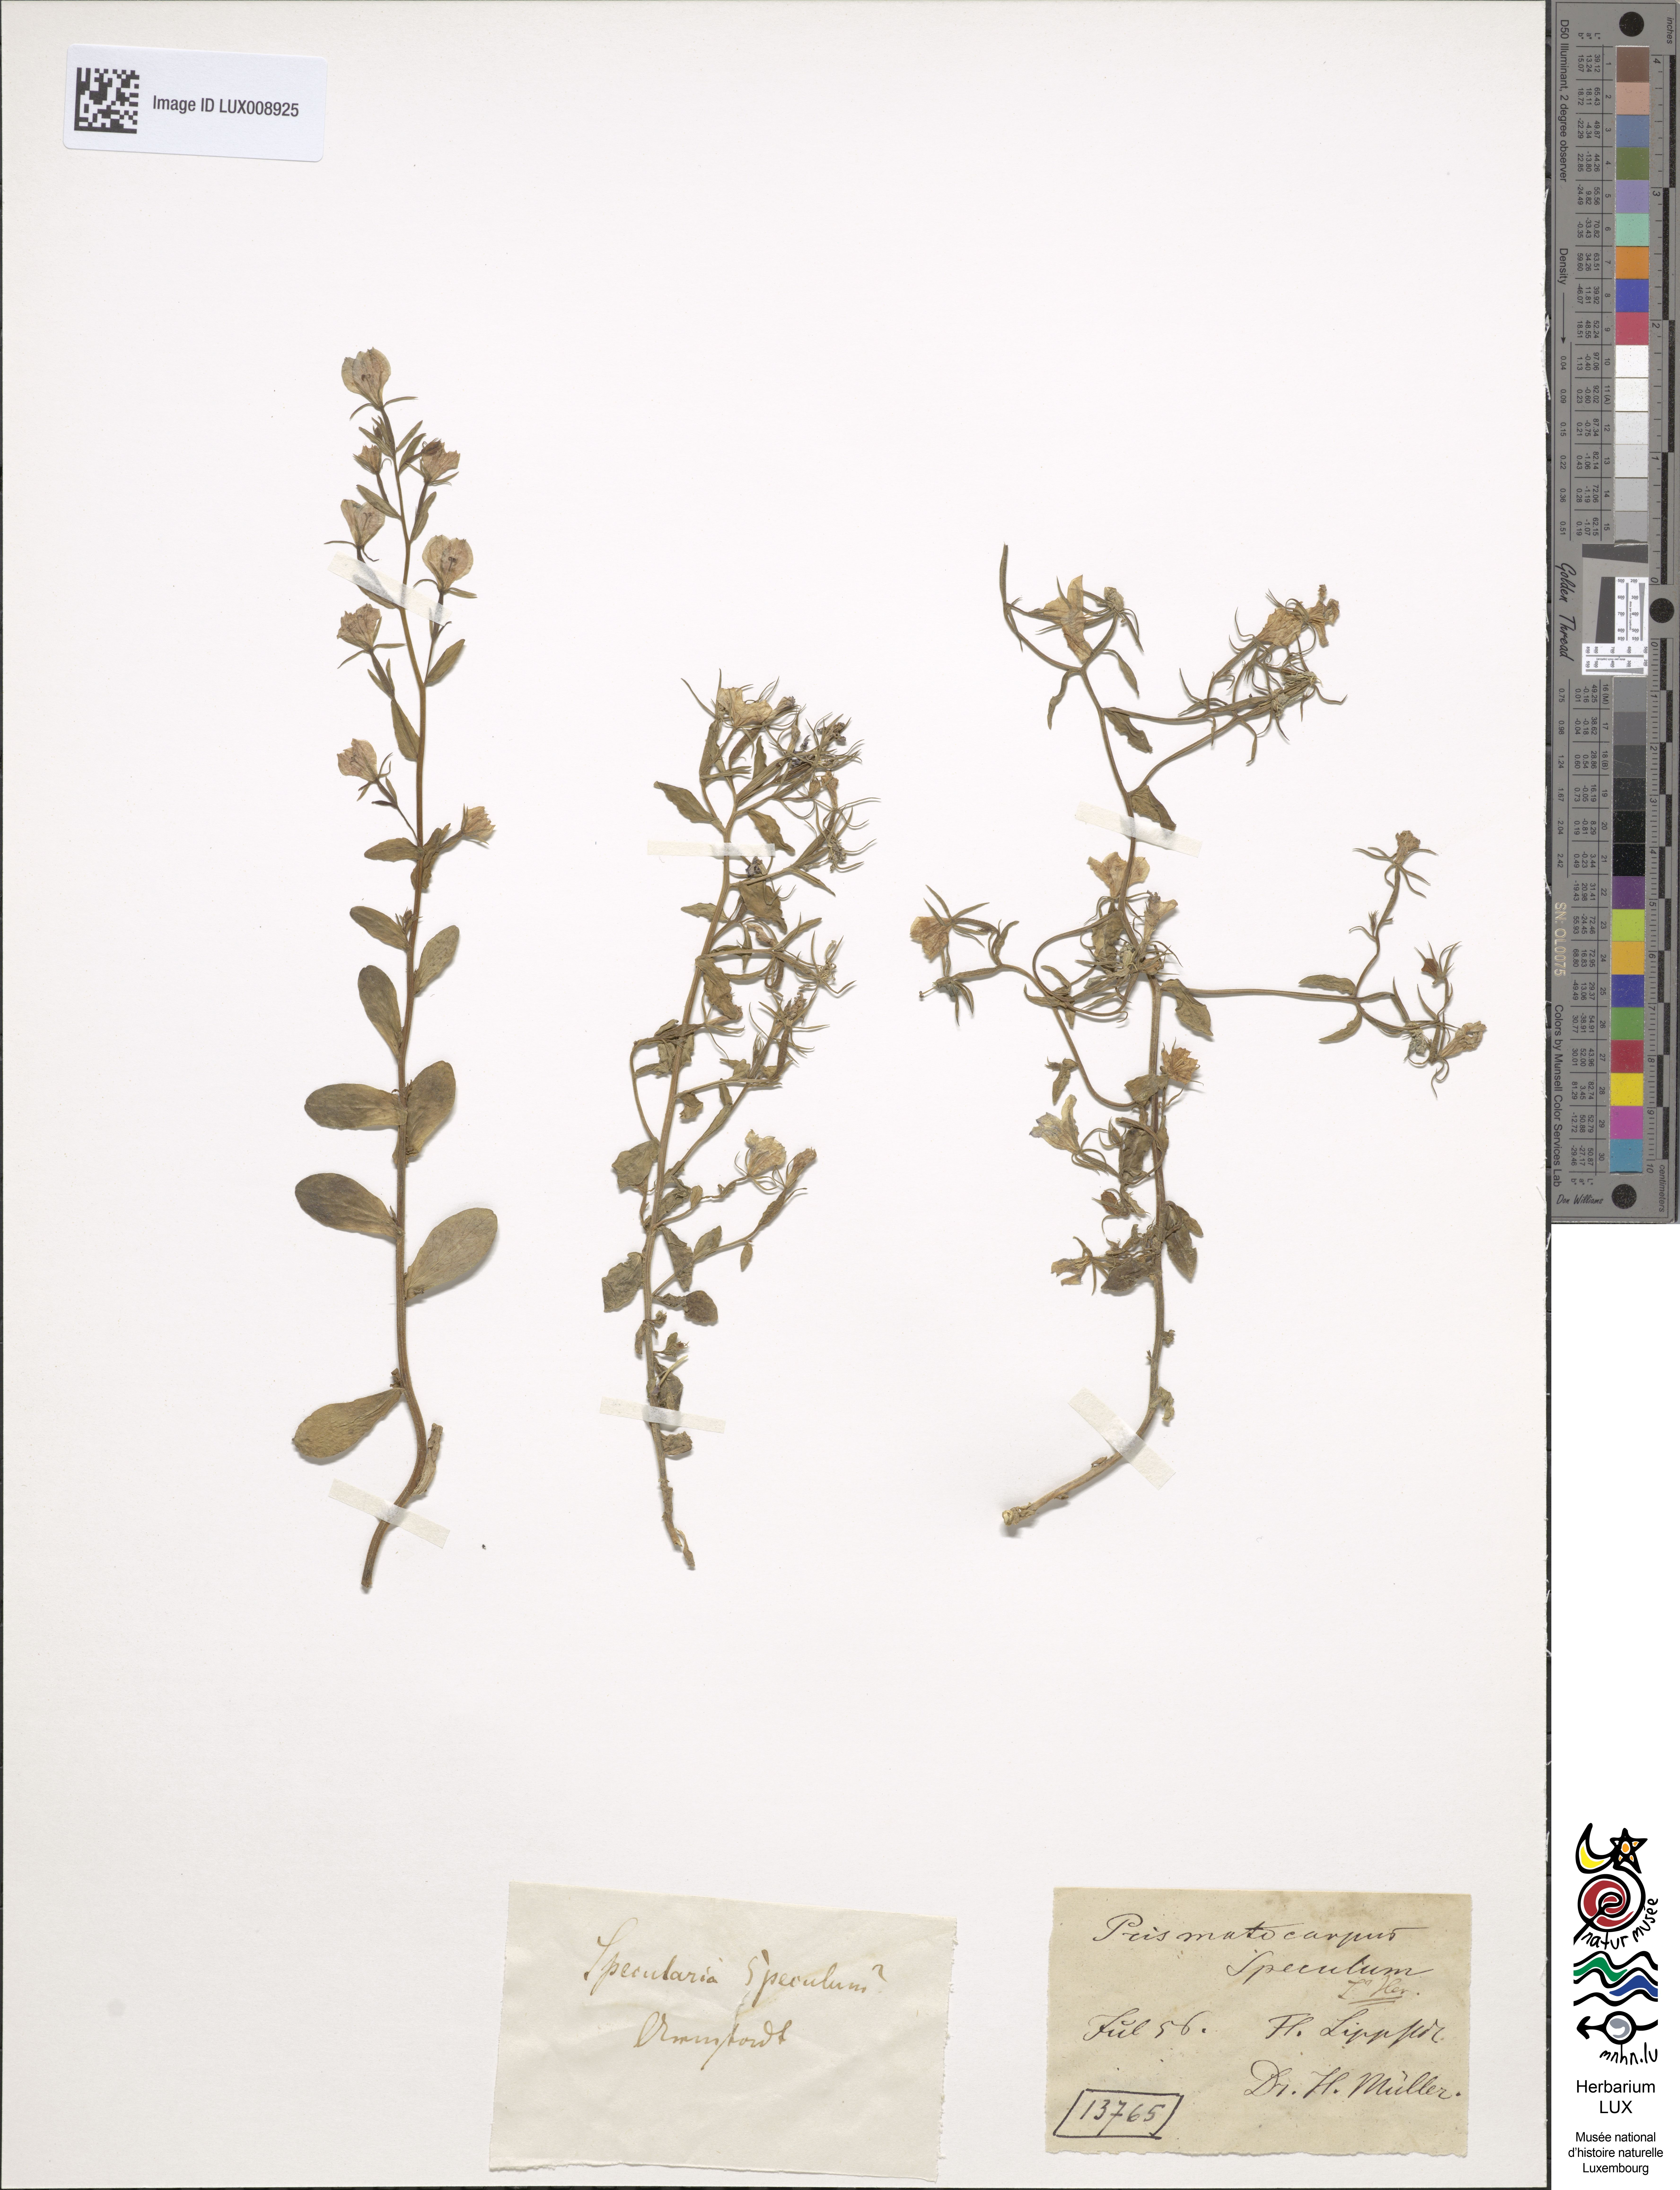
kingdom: Plantae
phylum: Tracheophyta
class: Magnoliopsida
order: Asterales
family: Campanulaceae
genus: Legousia
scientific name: Legousia speculum-veneris
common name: Large venus's-looking-glass
